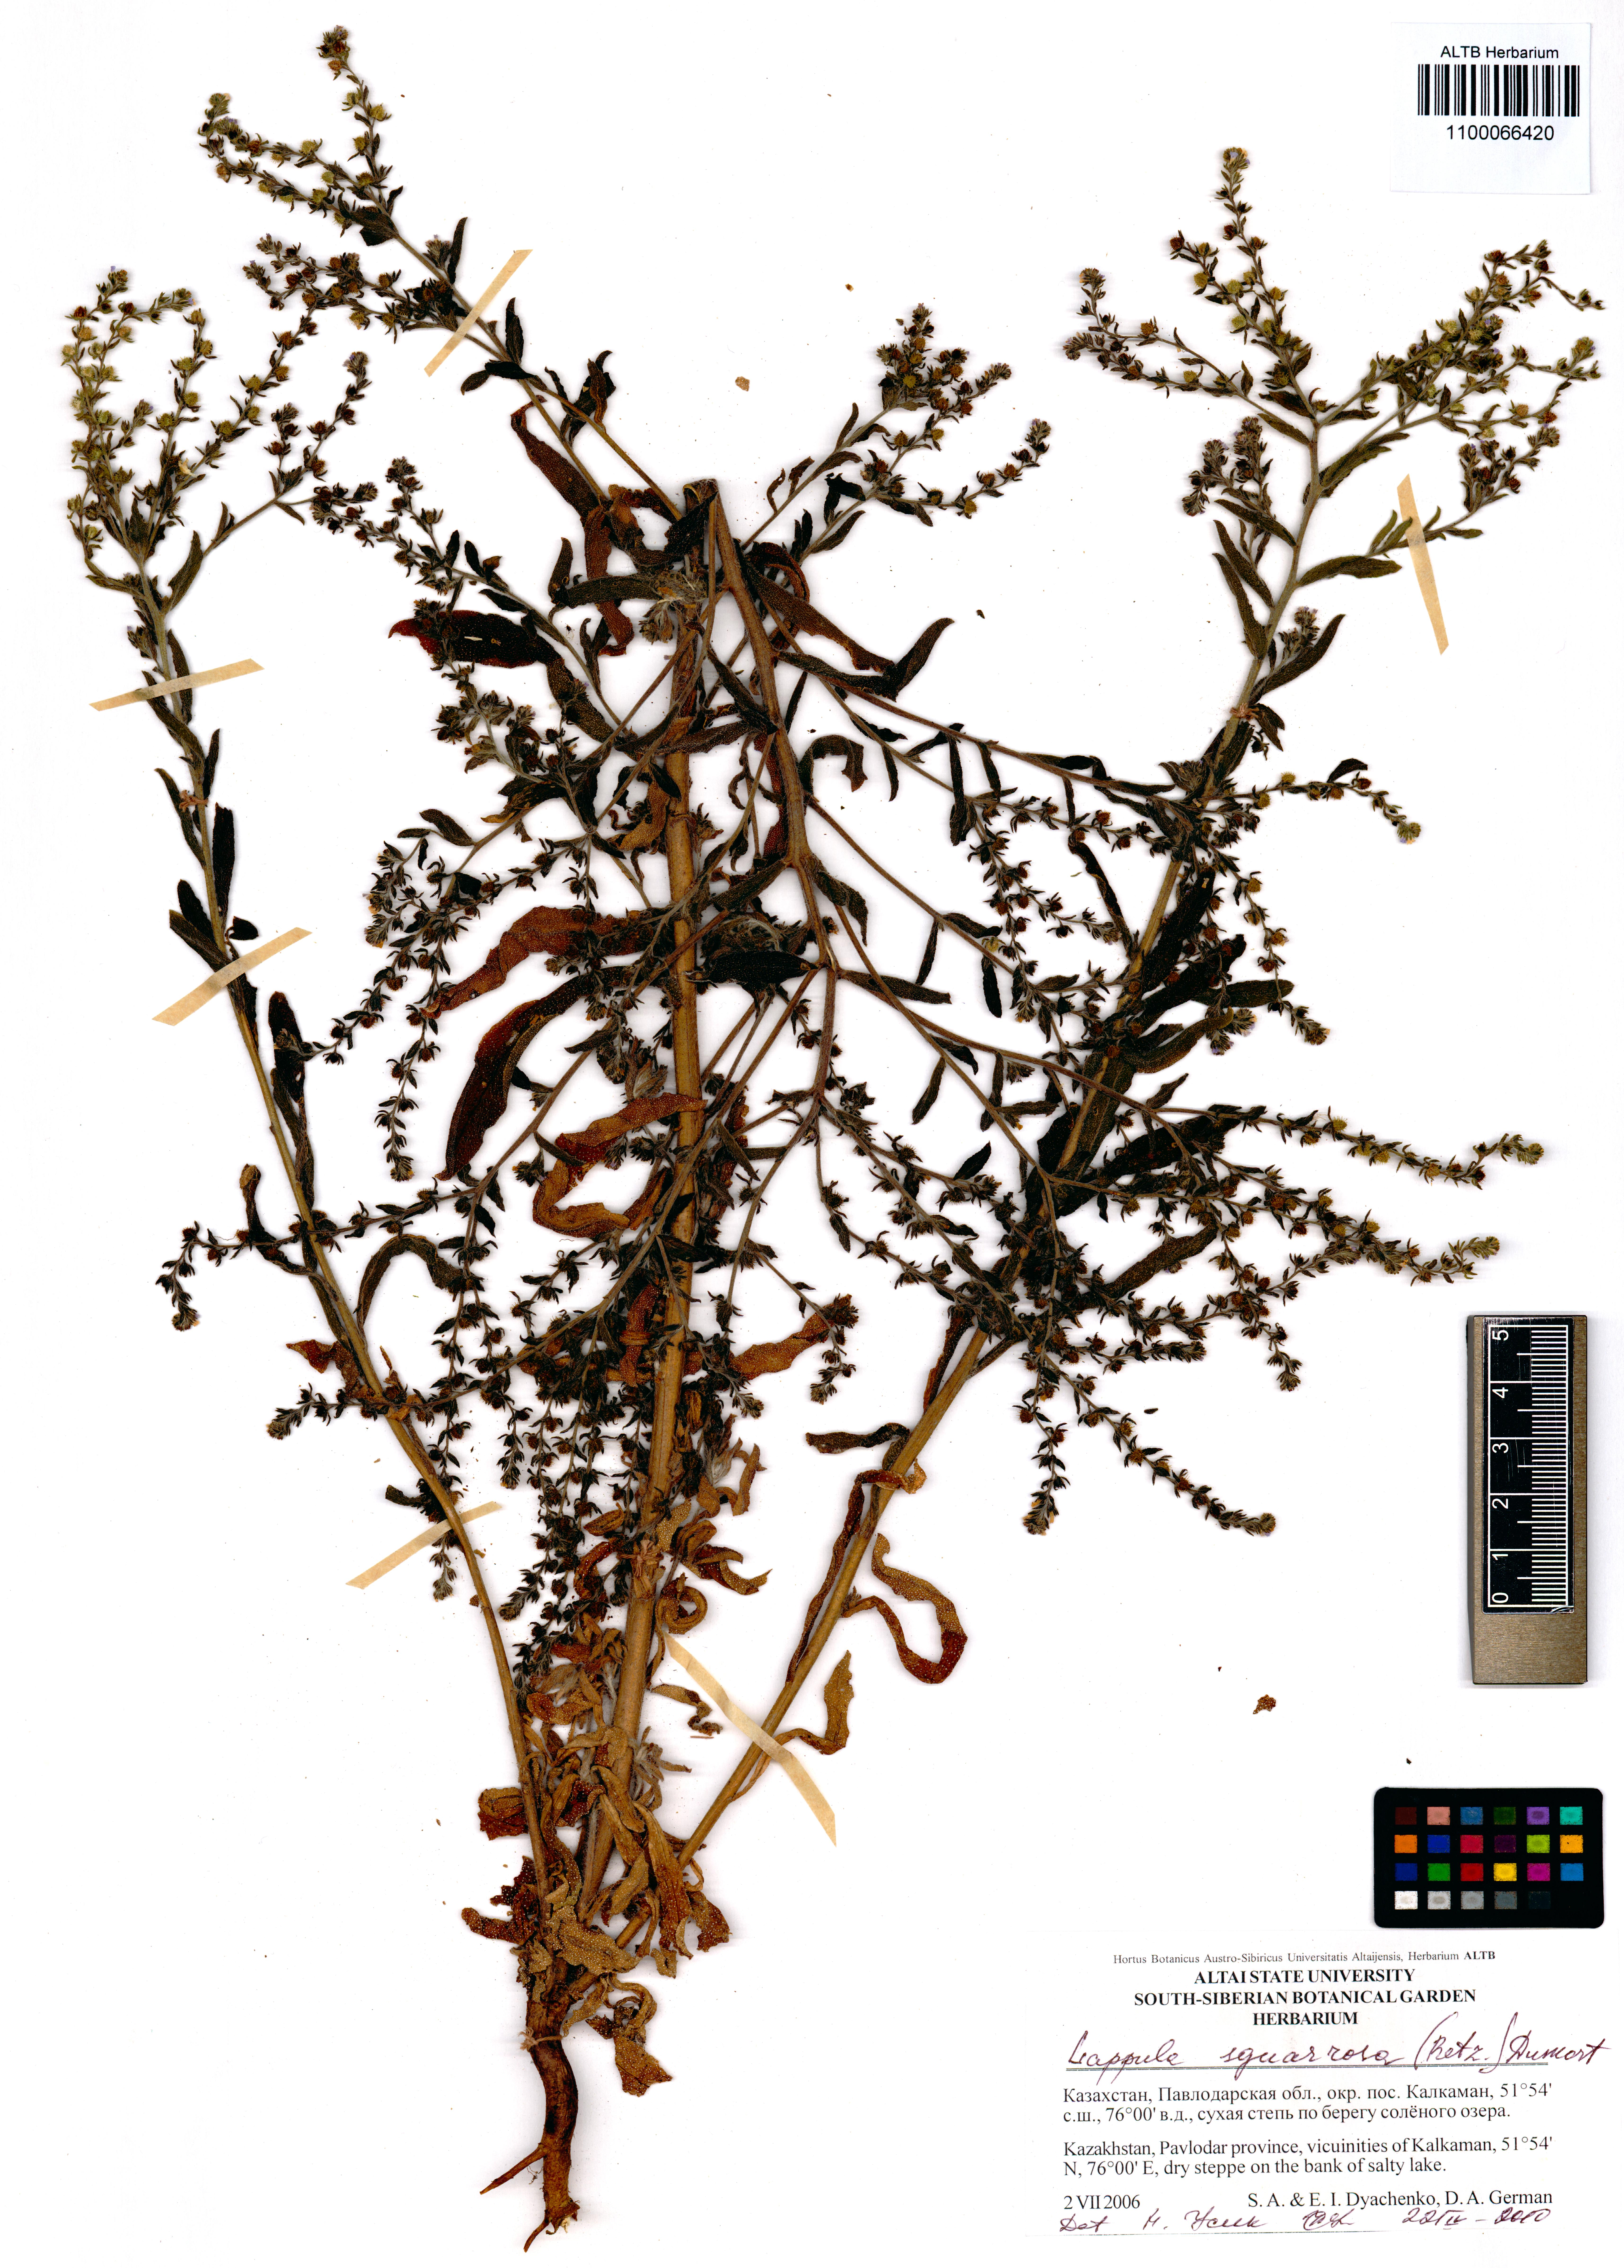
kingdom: Plantae
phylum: Tracheophyta
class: Magnoliopsida
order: Boraginales
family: Boraginaceae
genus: Lappula
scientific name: Lappula squarrosa
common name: European stickseed
